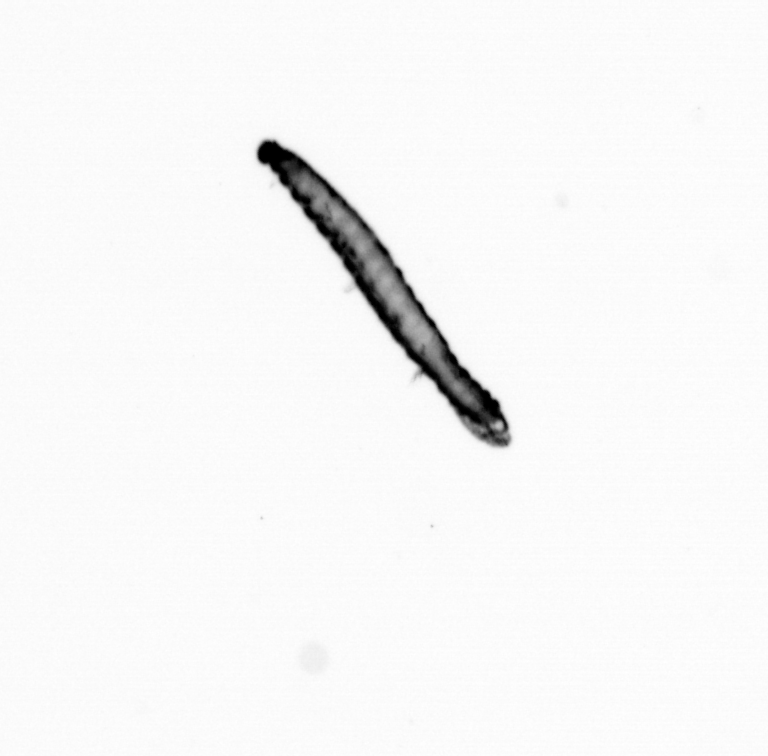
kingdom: Animalia
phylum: Annelida
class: Polychaeta
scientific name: Polychaeta
